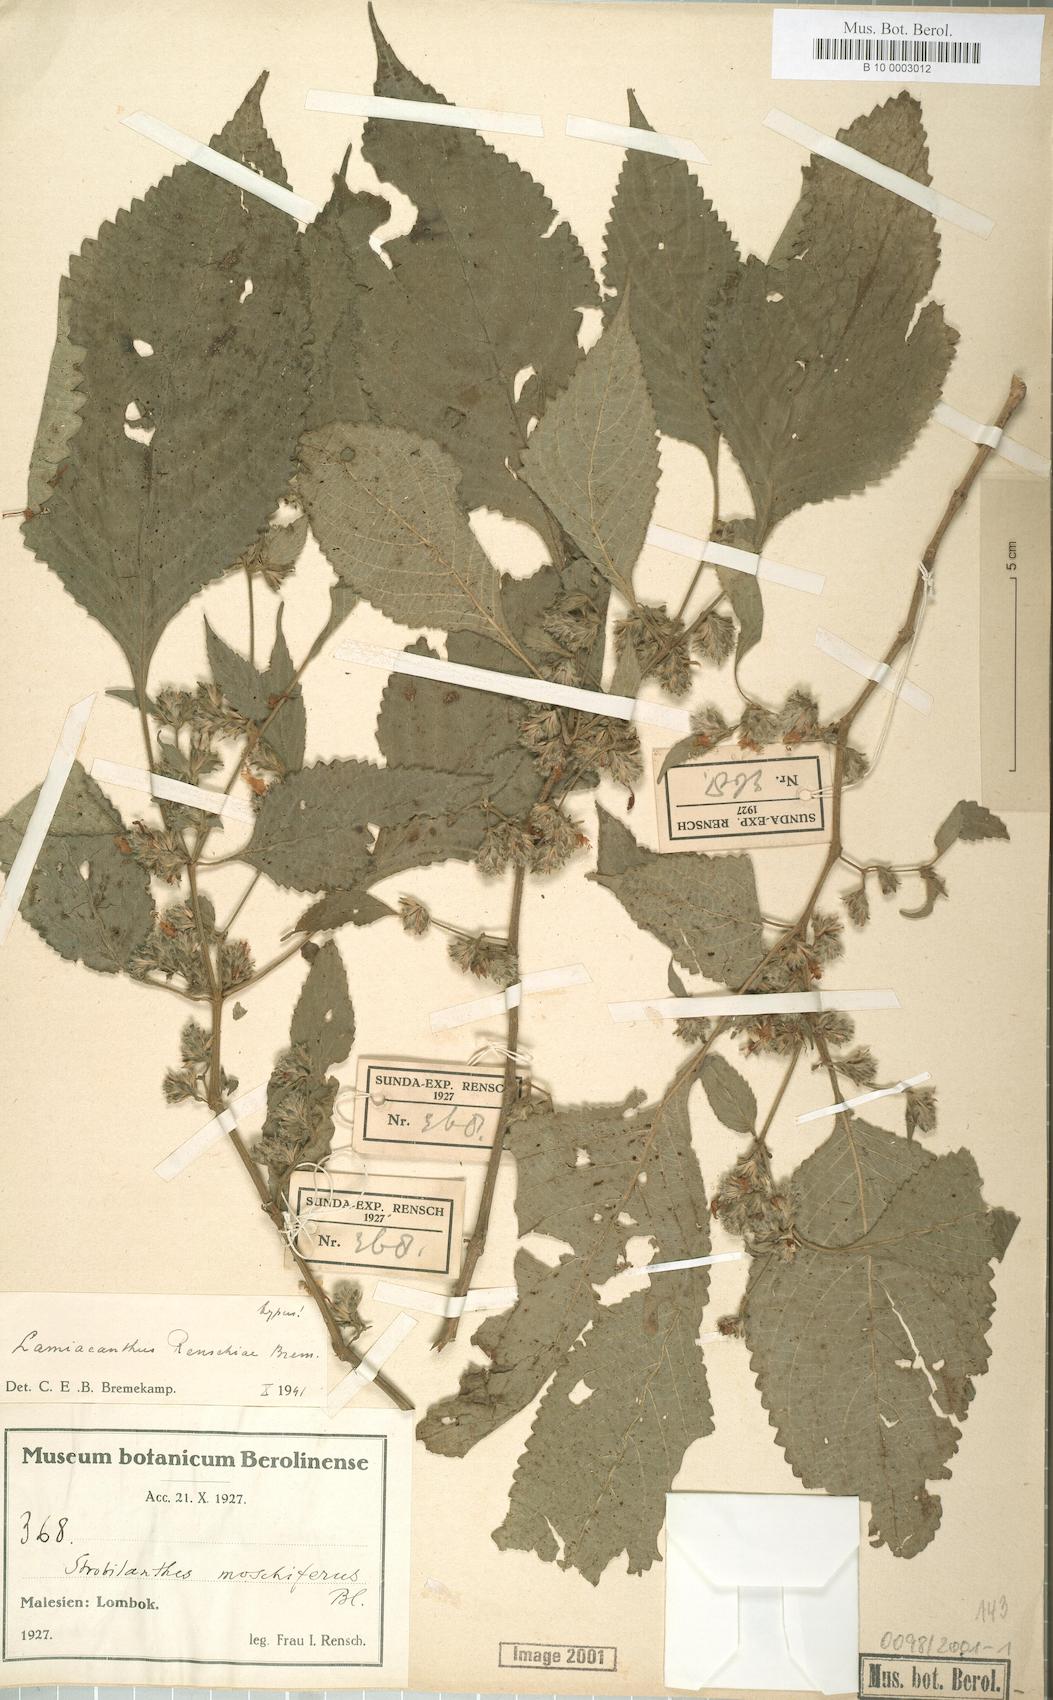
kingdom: Plantae
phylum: Tracheophyta
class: Magnoliopsida
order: Lamiales
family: Acanthaceae
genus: Strobilanthes
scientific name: Strobilanthes renschiae
